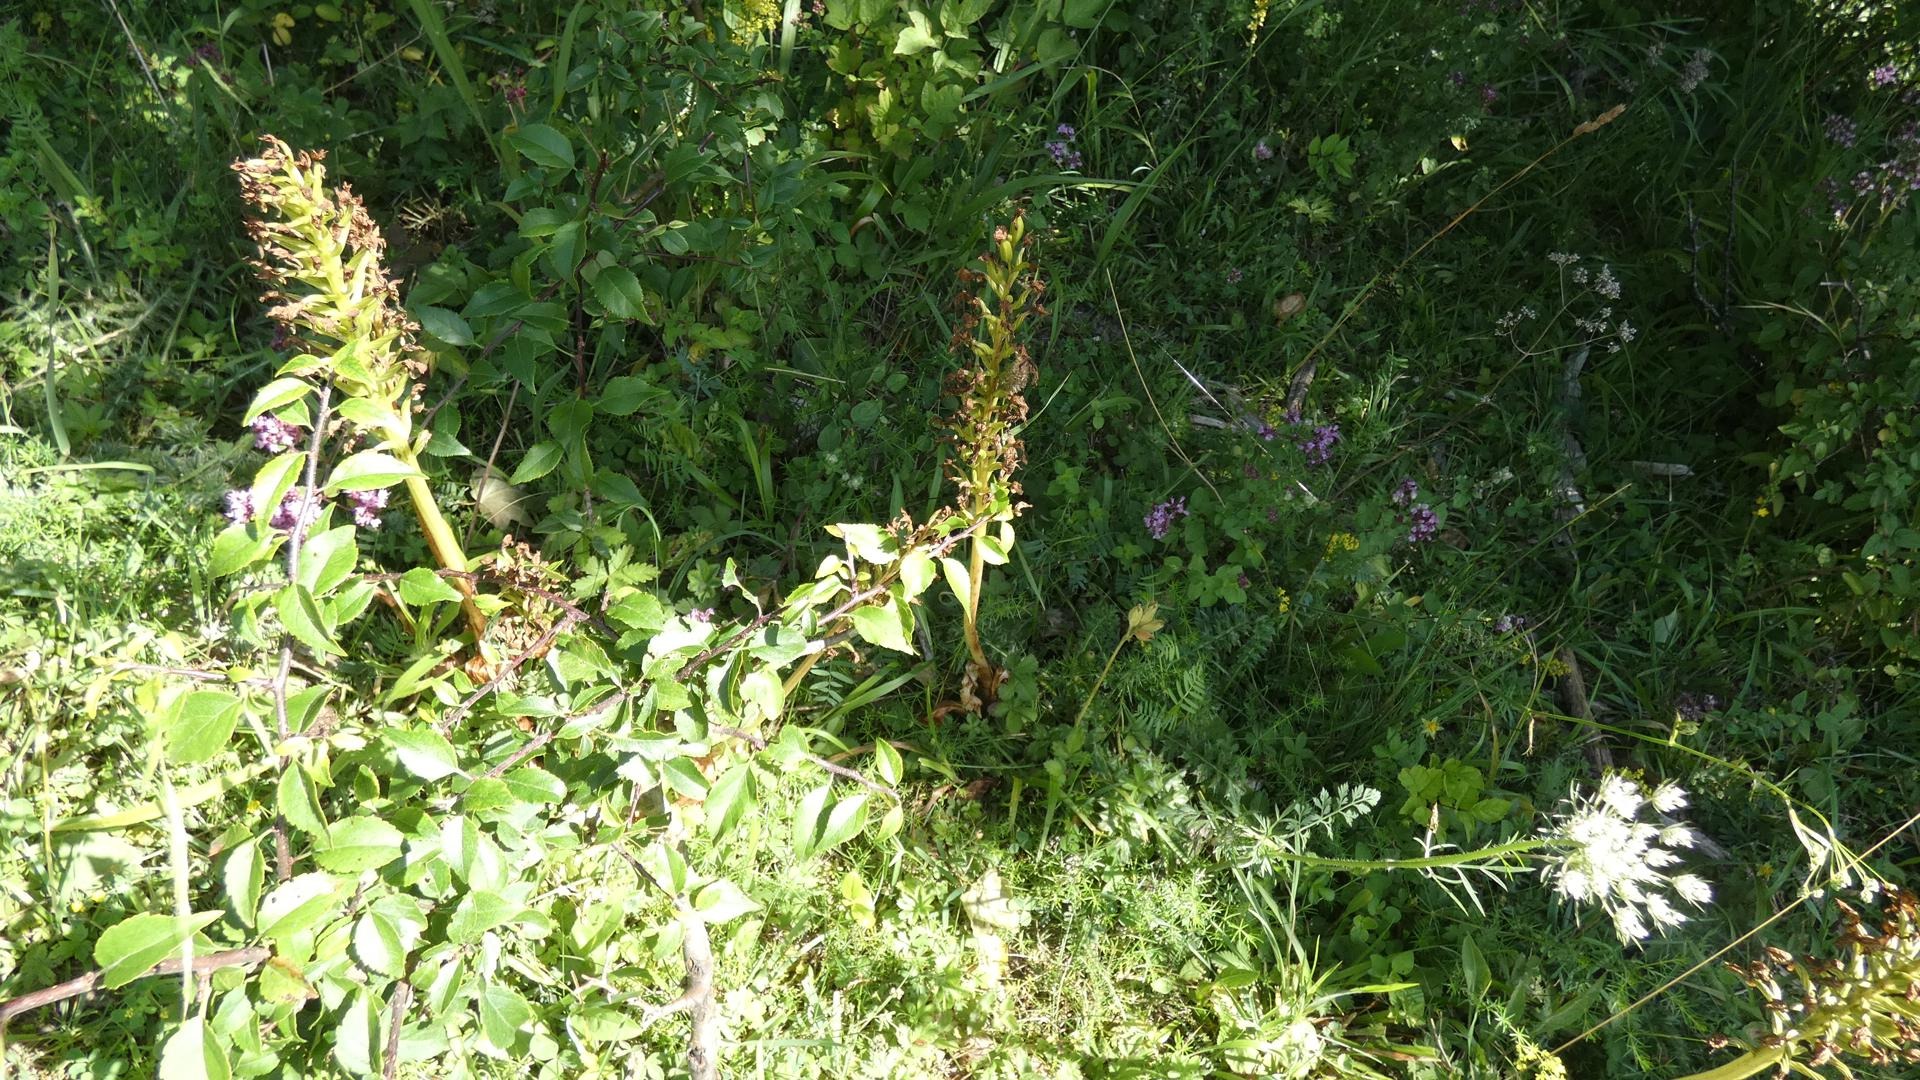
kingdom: Plantae
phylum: Tracheophyta
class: Liliopsida
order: Asparagales
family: Orchidaceae
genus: Orchis
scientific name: Orchis purpurea
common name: Stor gøgeurt
